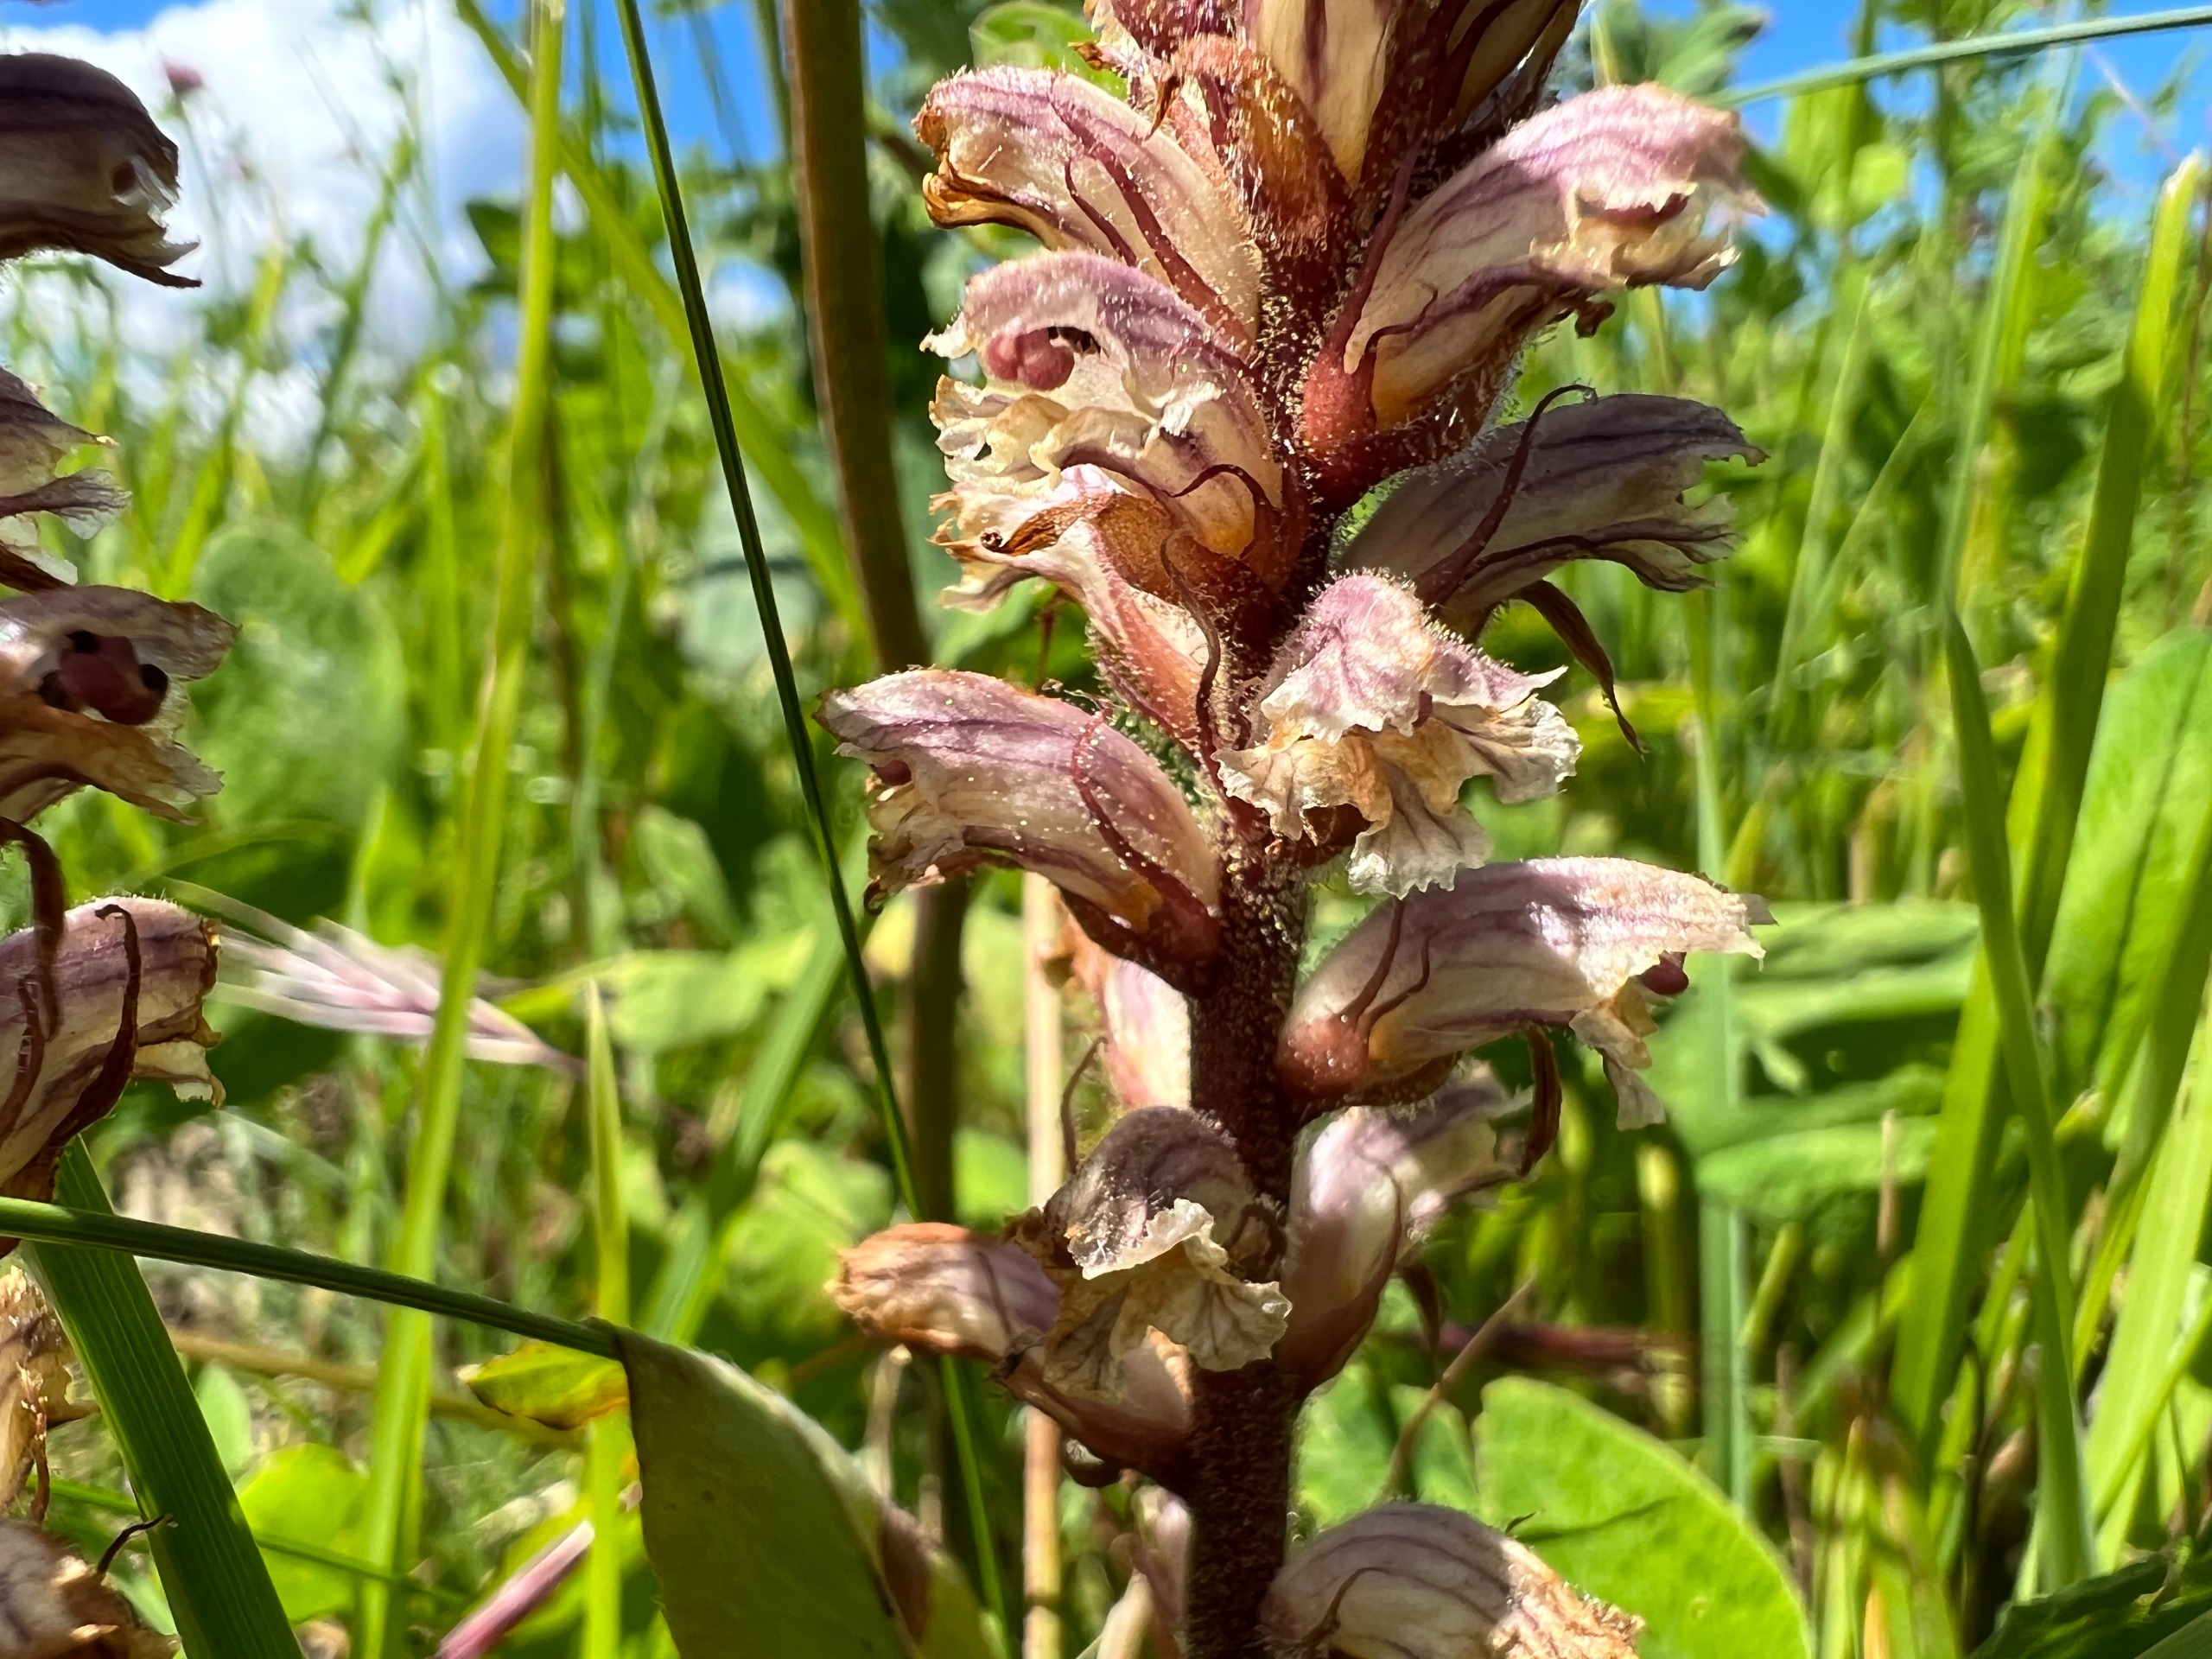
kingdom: Plantae
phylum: Tracheophyta
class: Magnoliopsida
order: Lamiales
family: Orobanchaceae
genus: Orobanche
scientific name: Orobanche minor
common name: Kløver-gyvelkvæler
